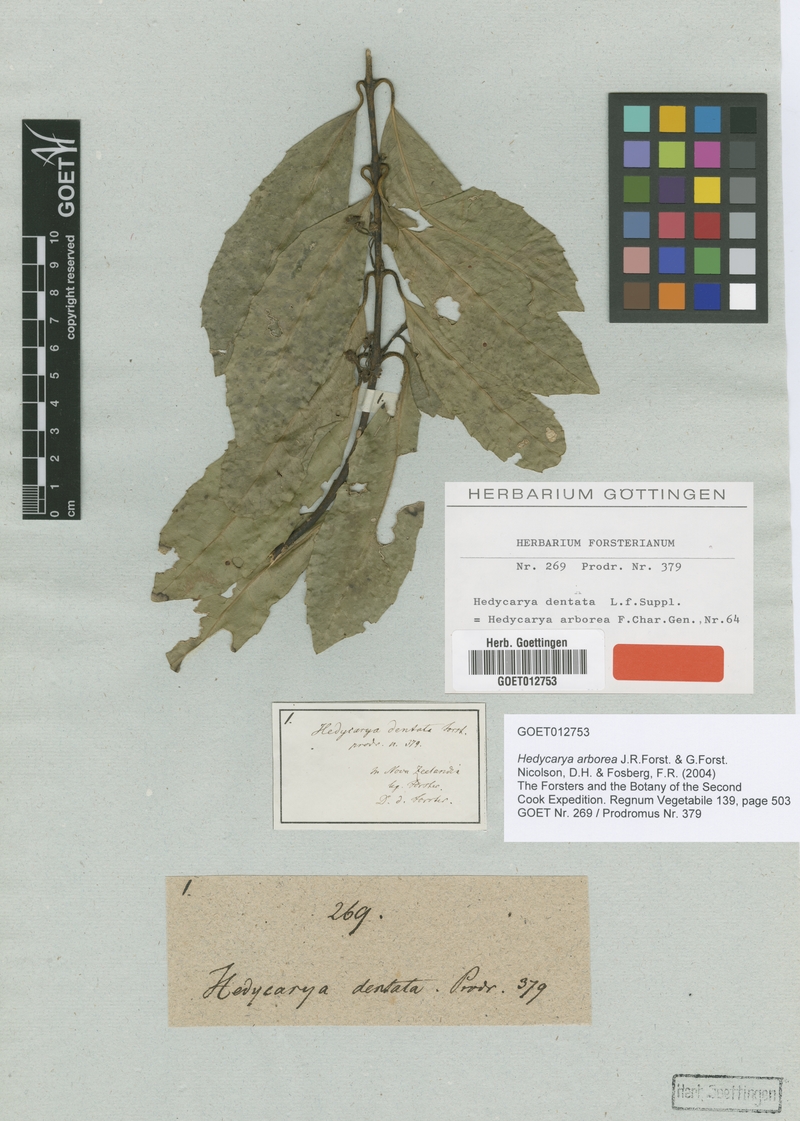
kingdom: Plantae
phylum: Tracheophyta
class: Magnoliopsida
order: Laurales
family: Monimiaceae
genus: Hedycarya
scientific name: Hedycarya arborea
